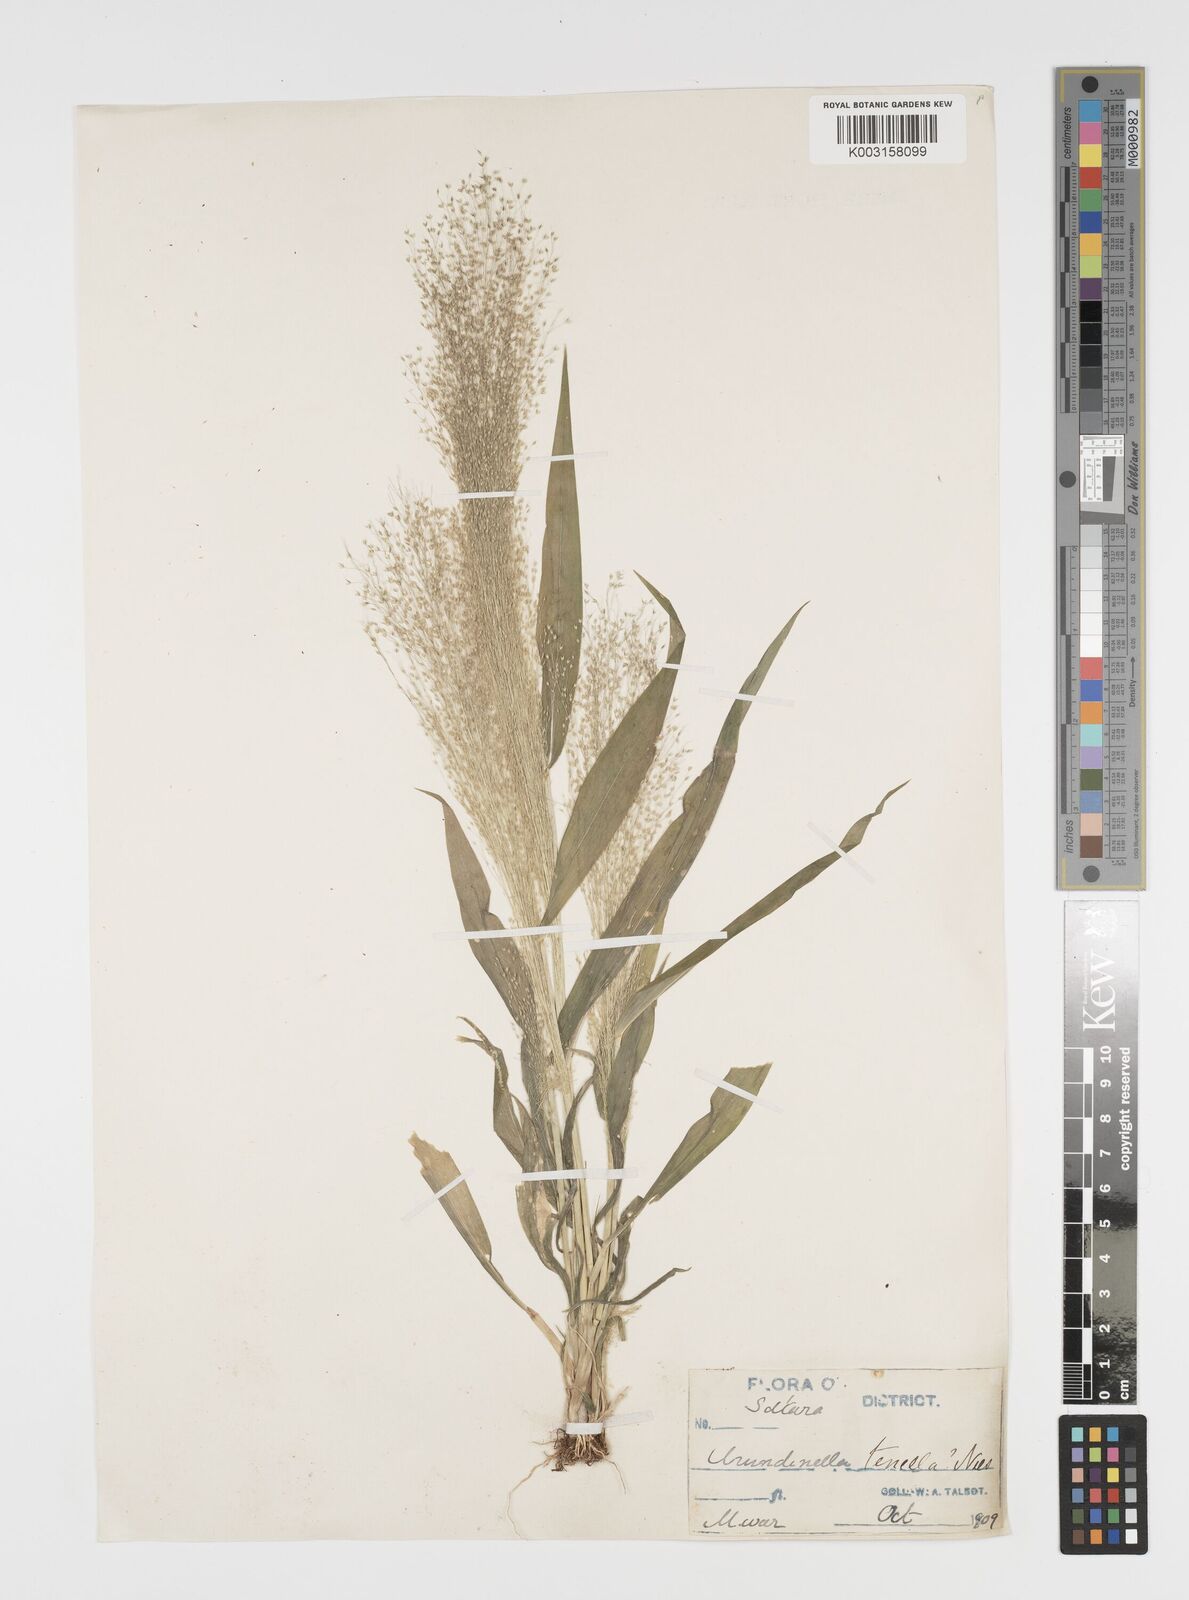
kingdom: Plantae
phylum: Tracheophyta
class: Liliopsida
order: Poales
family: Poaceae
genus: Arundinella
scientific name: Arundinella pumila
